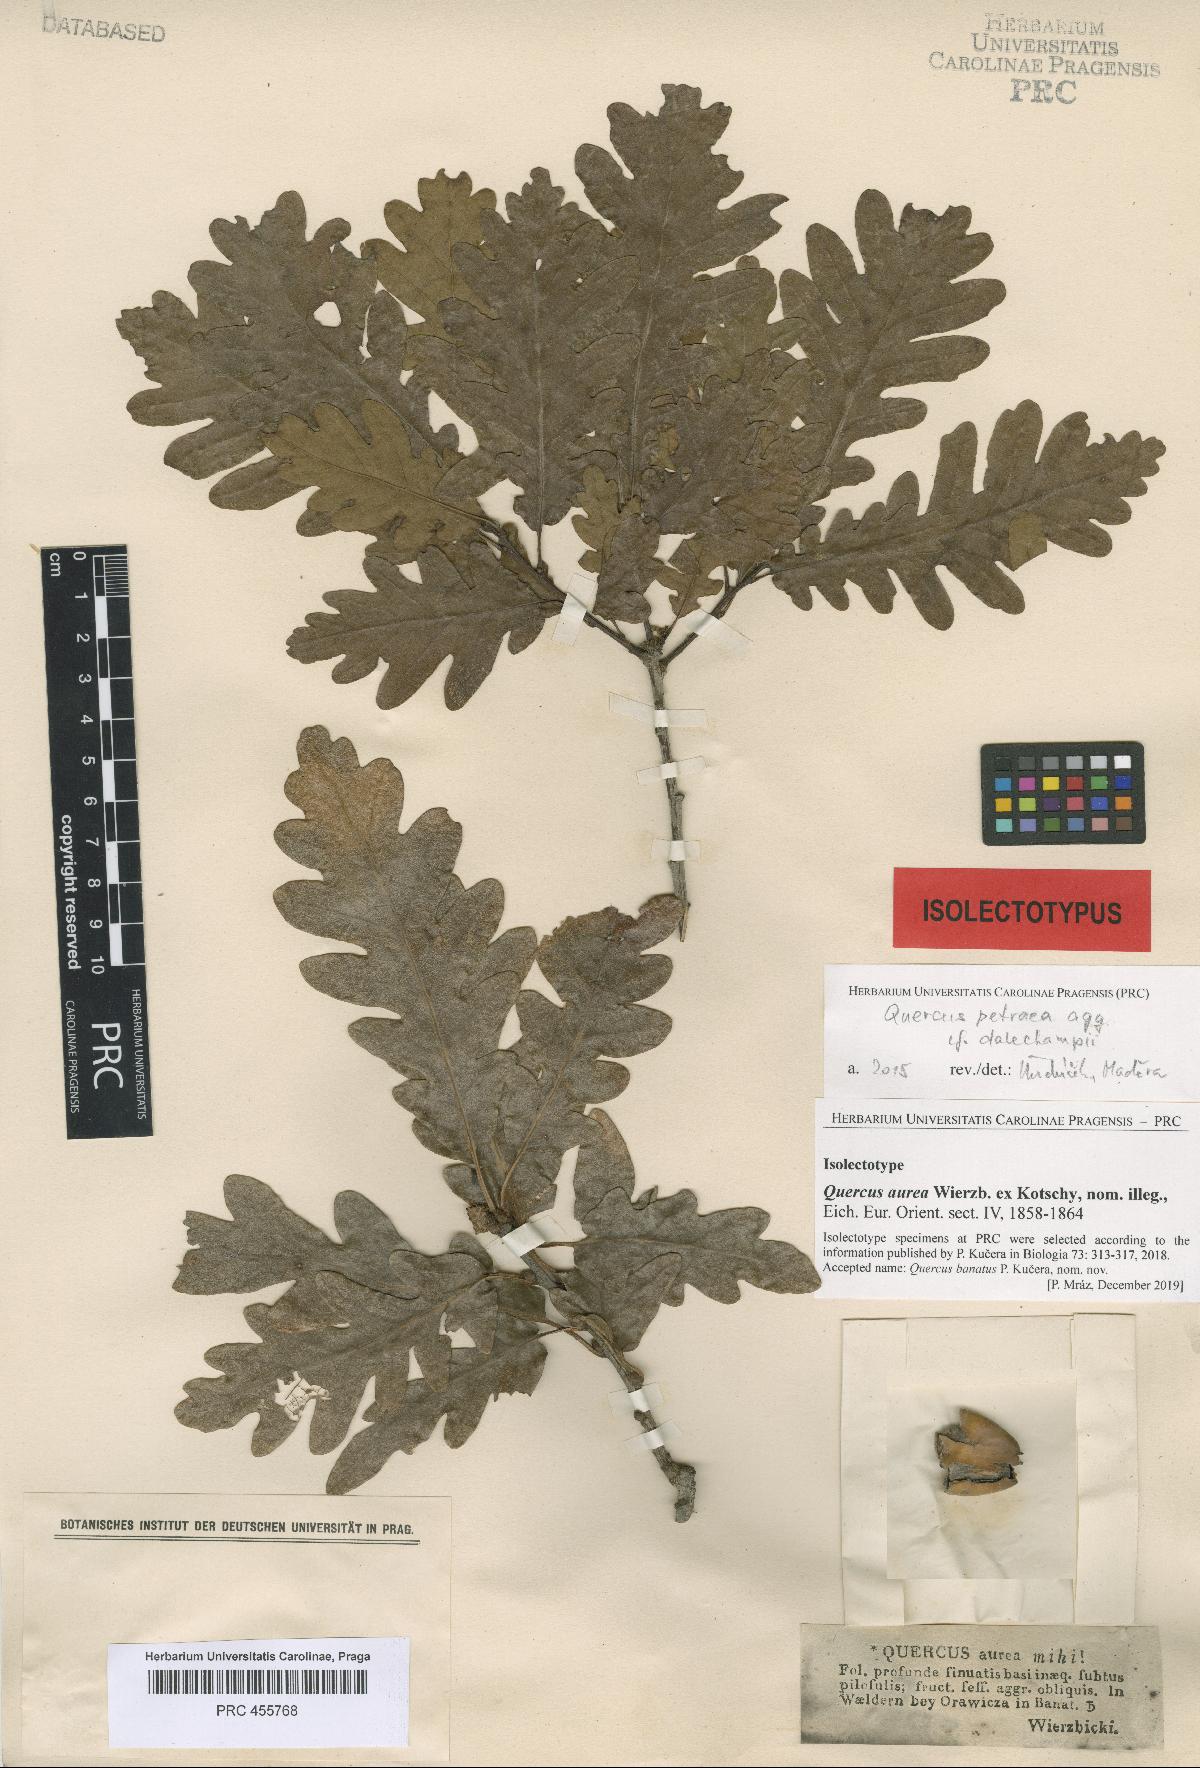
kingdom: Plantae
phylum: Tracheophyta
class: Magnoliopsida
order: Fagales
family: Fagaceae
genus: Quercus
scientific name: Quercus aurea
